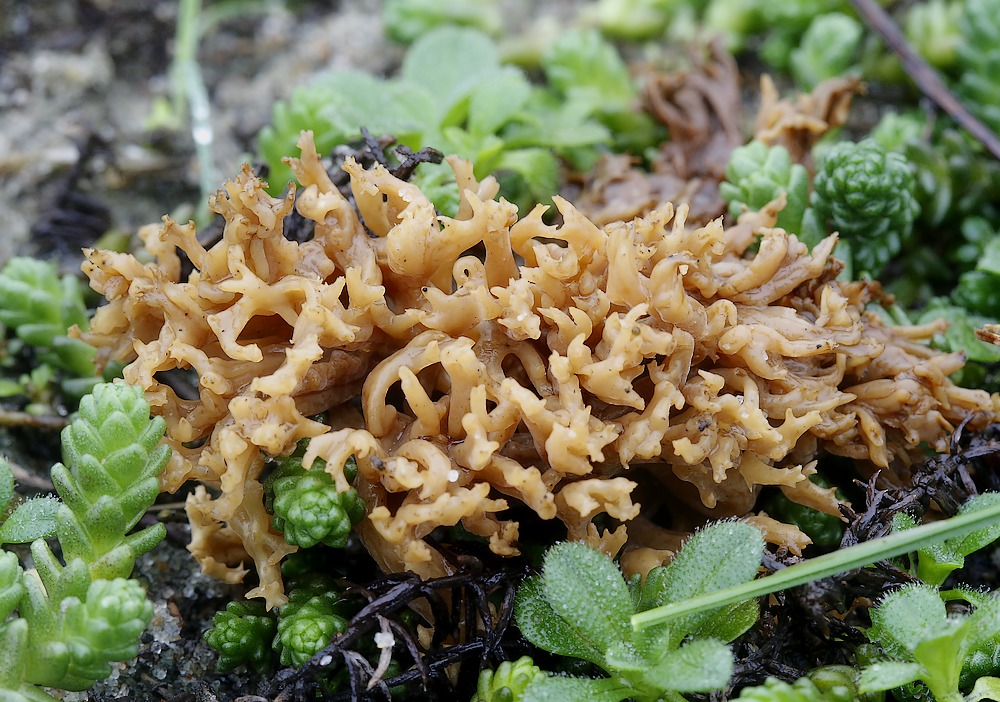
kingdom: Fungi
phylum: Basidiomycota
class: Agaricomycetes
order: Gomphales
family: Gomphaceae
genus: Phaeoclavulina
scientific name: Phaeoclavulina flaccida
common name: spinkel koralsvamp
